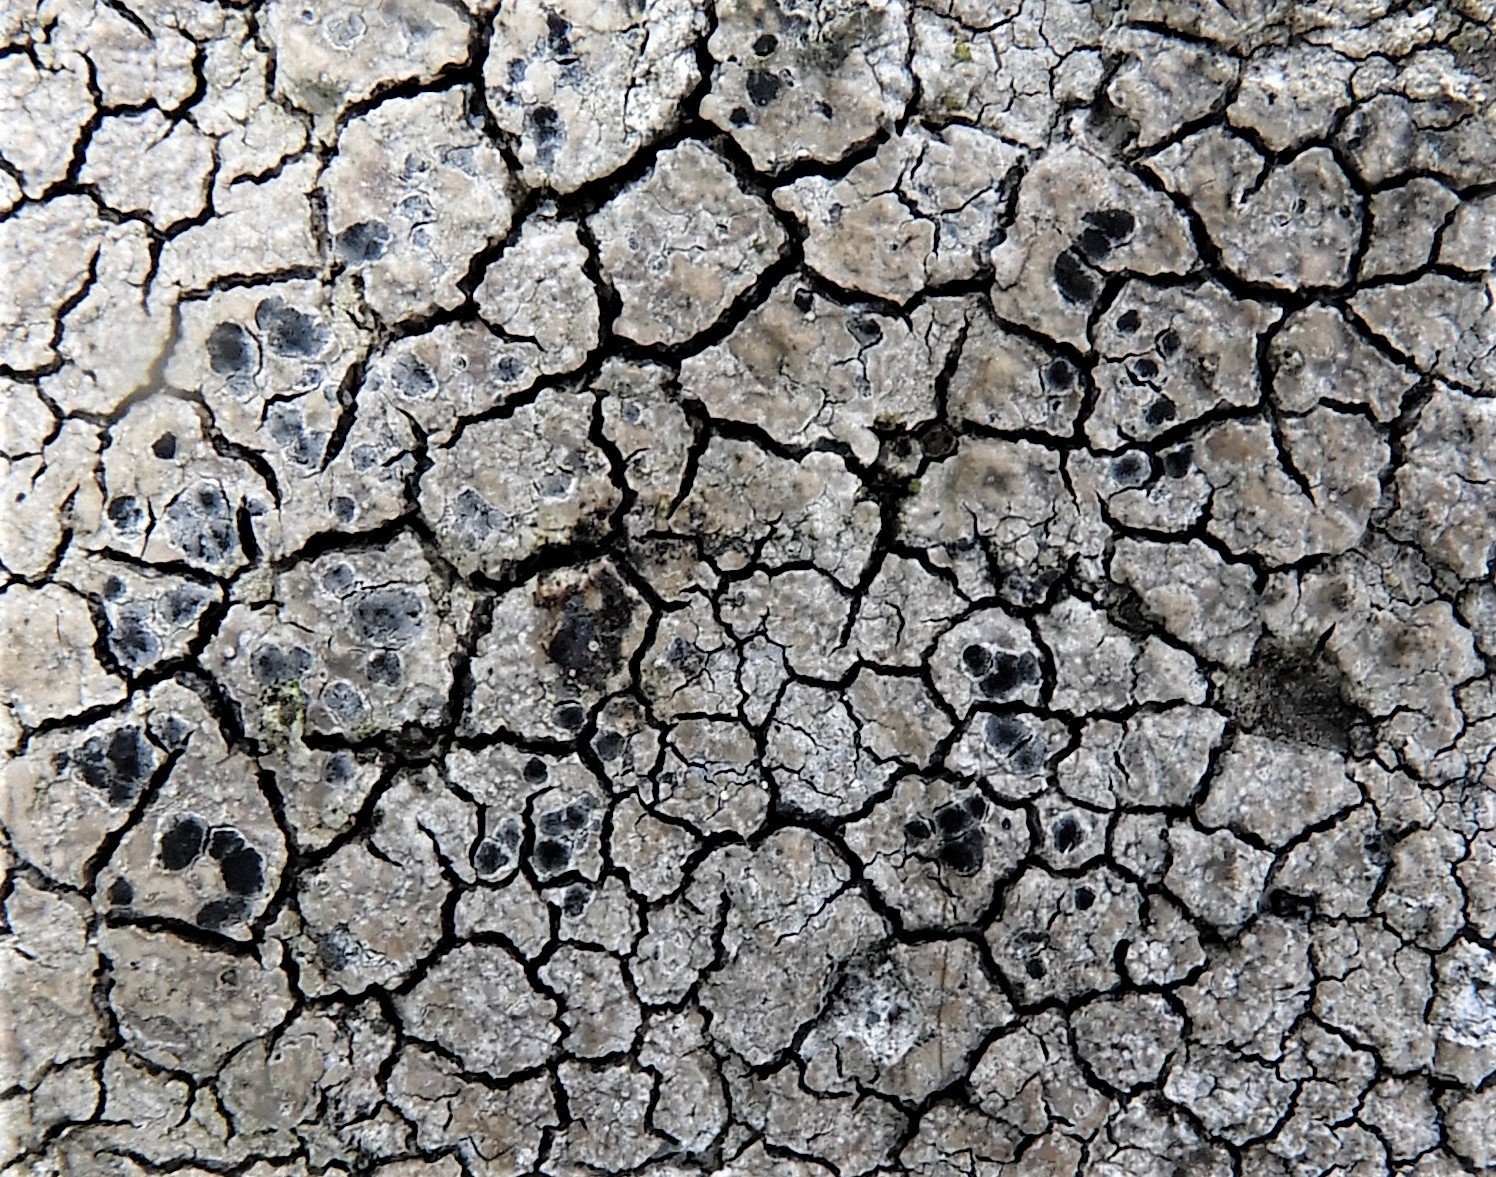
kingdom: Fungi
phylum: Ascomycota
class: Lecanoromycetes
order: Lecanorales
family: Lecanoraceae
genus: Glaucomaria
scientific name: Glaucomaria rupicola
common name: stengærde-kantskivelav
